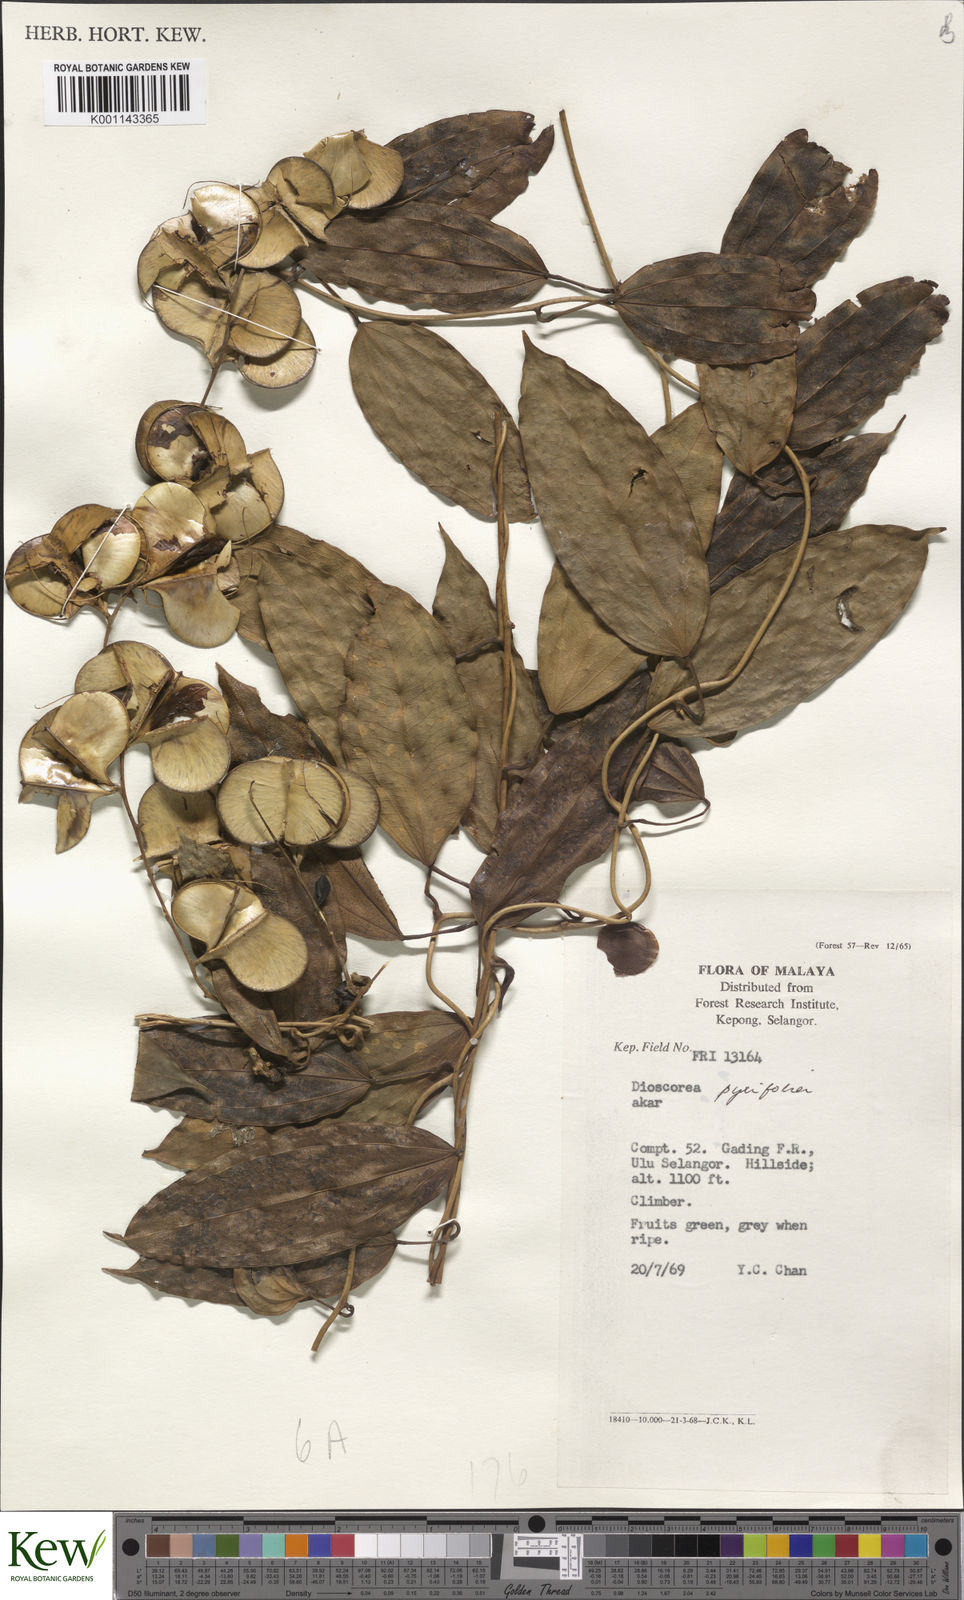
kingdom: Plantae
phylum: Tracheophyta
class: Liliopsida
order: Dioscoreales
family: Dioscoreaceae
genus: Dioscorea
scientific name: Dioscorea pyrifolia
